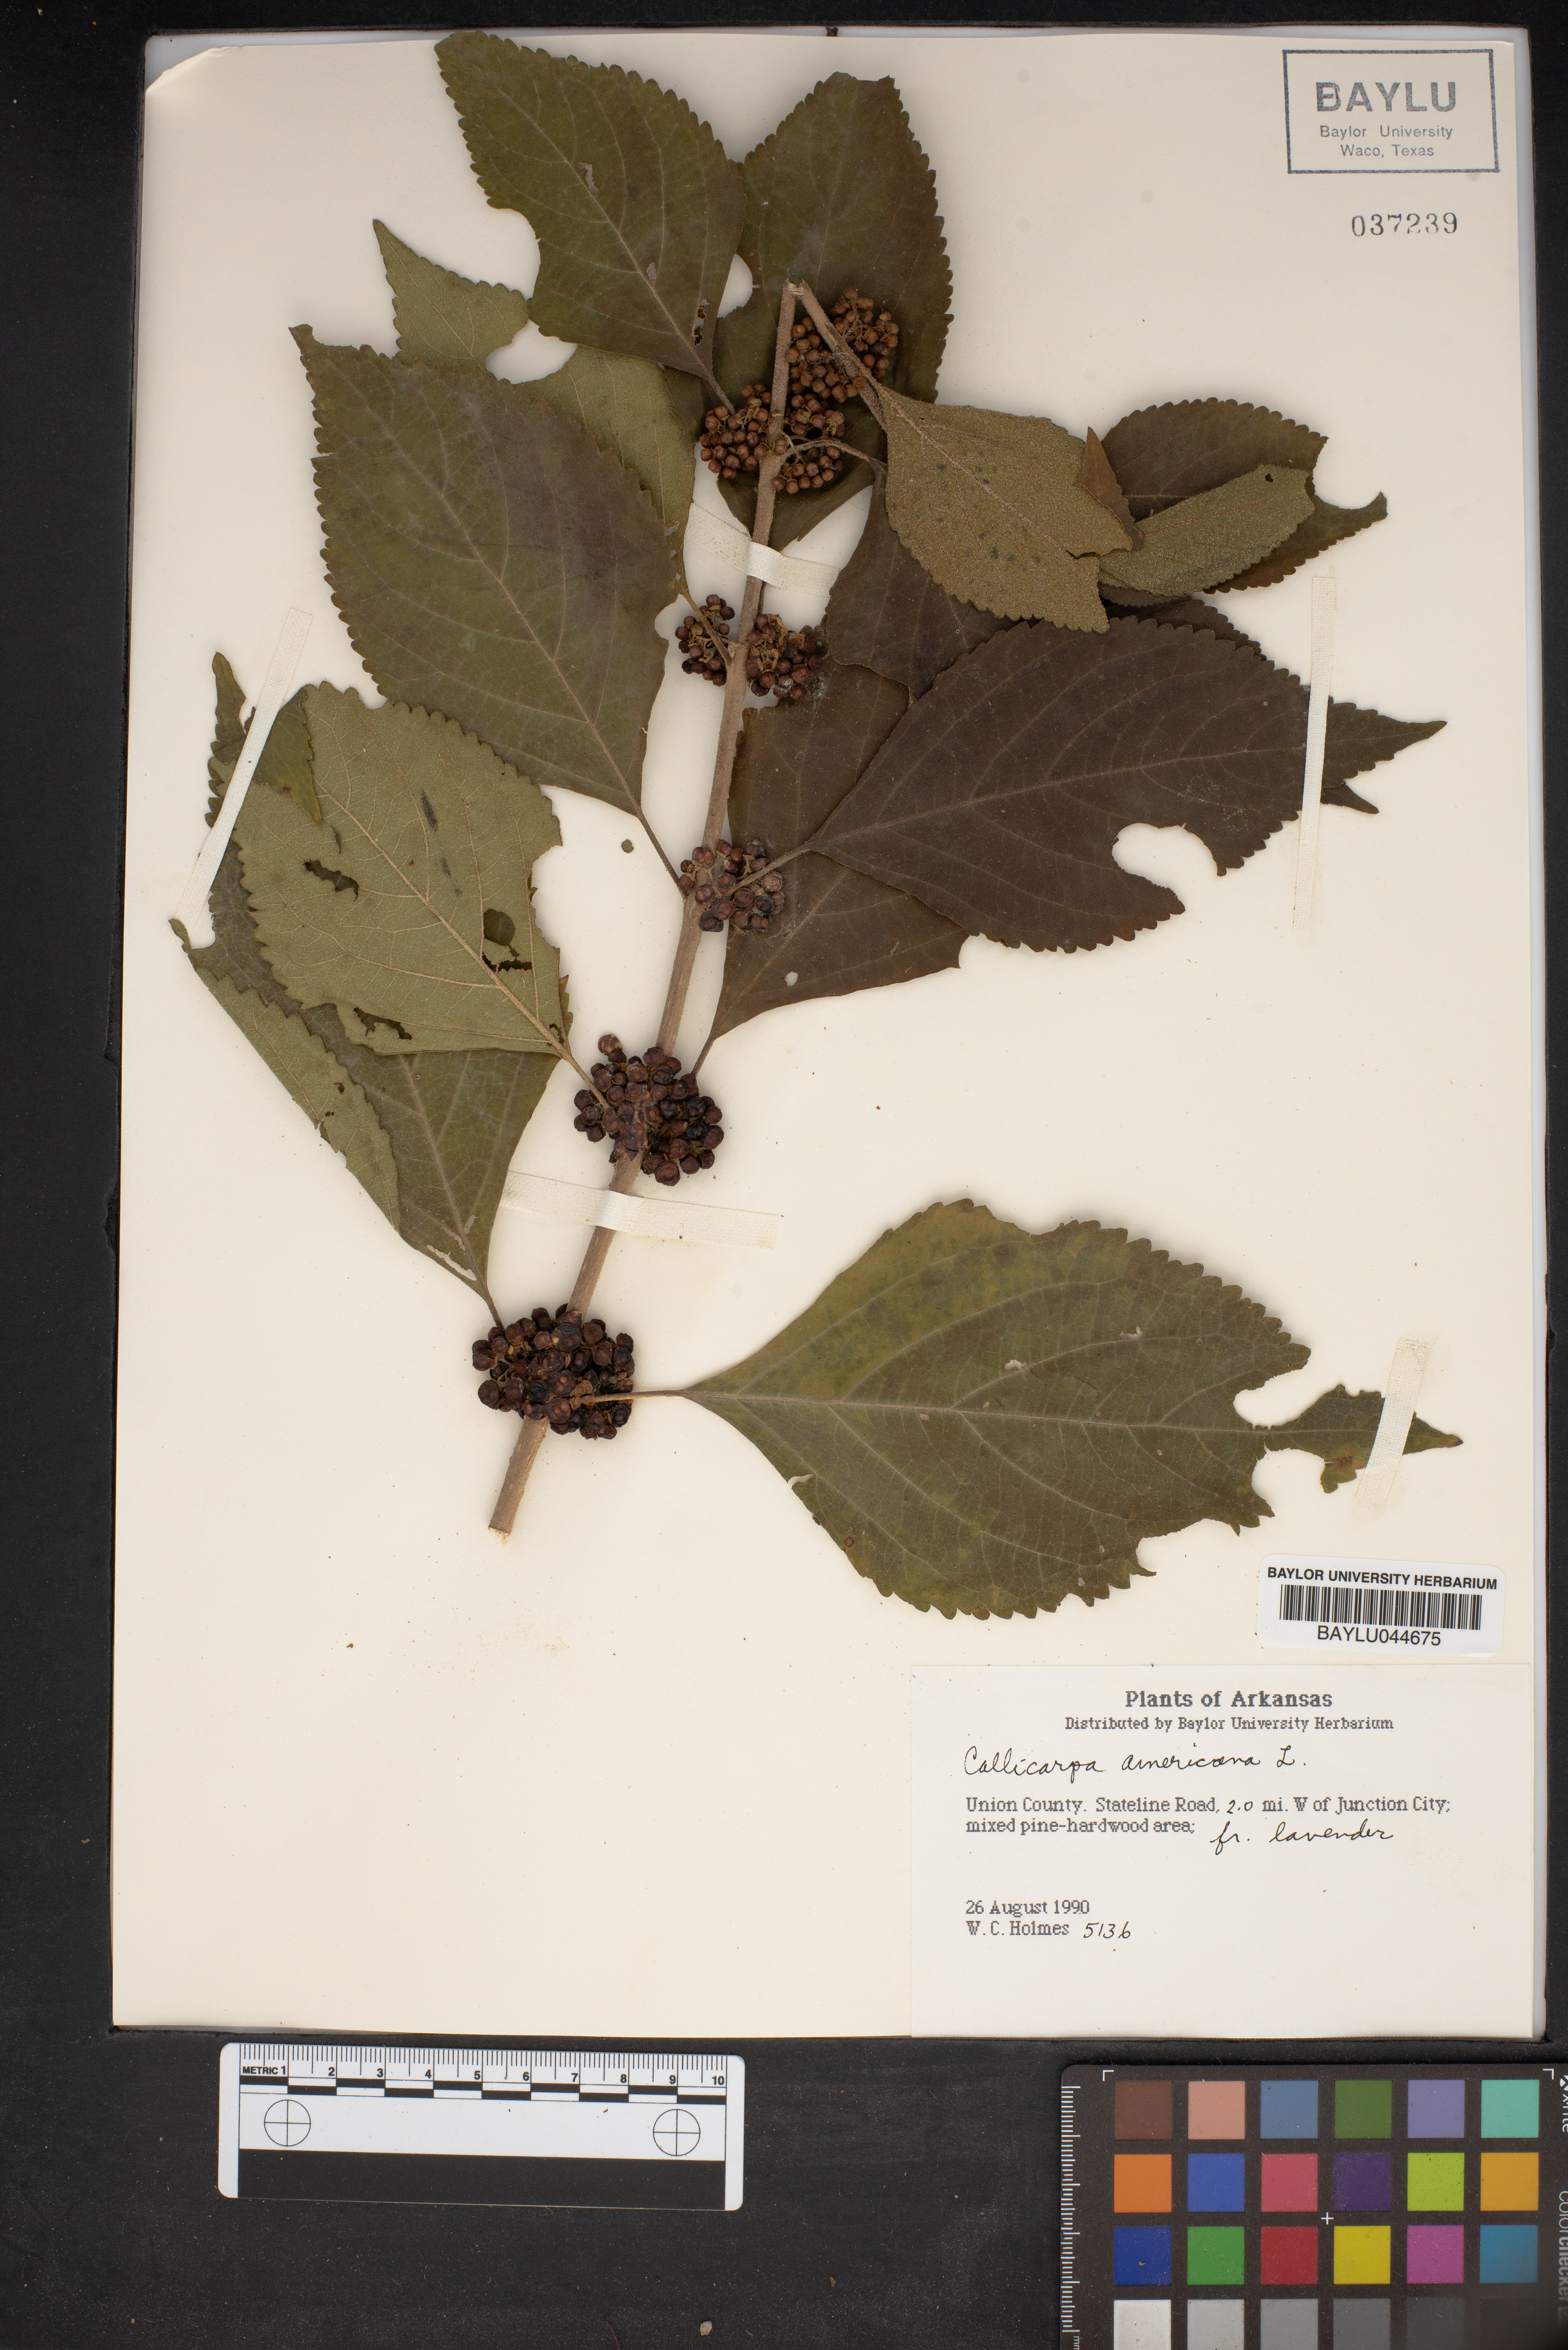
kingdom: Plantae
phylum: Tracheophyta
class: Magnoliopsida
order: Lamiales
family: Lamiaceae
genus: Callicarpa
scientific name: Callicarpa americana
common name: American beautyberry
